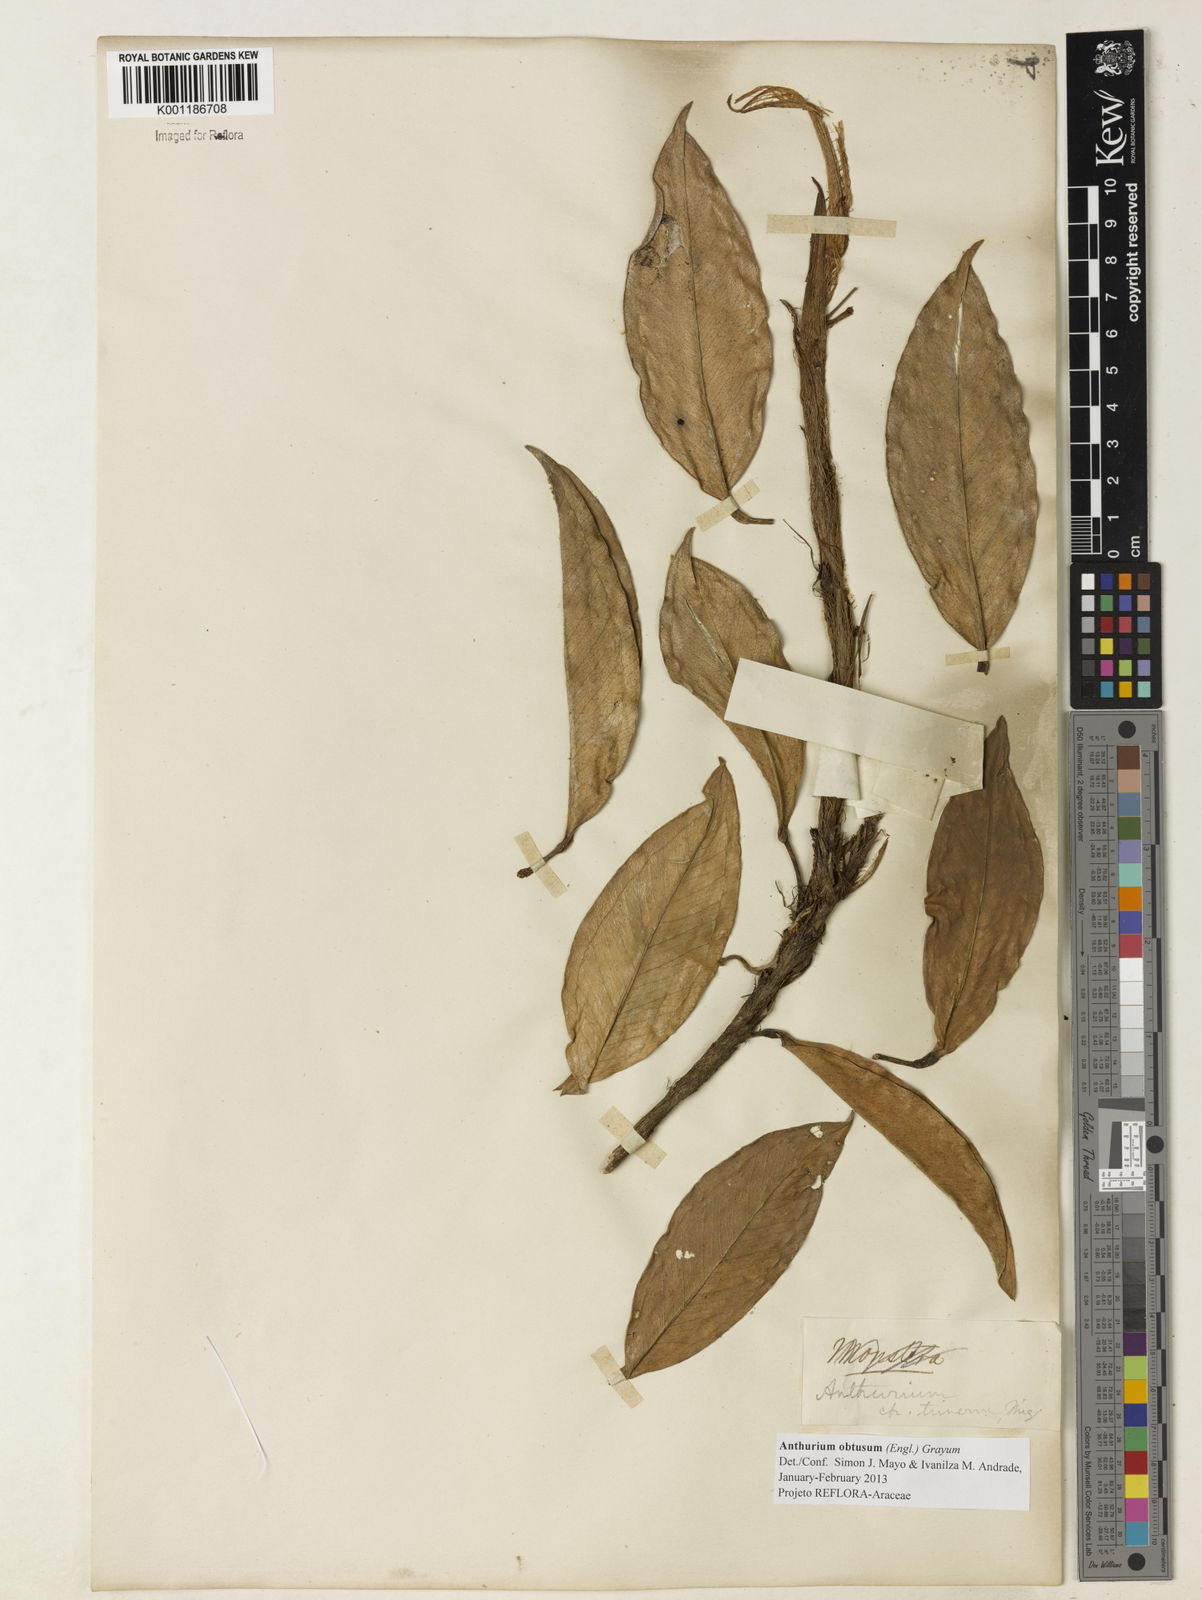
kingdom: Plantae
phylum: Tracheophyta
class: Liliopsida
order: Alismatales
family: Araceae
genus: Anthurium
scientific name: Anthurium obtusum
